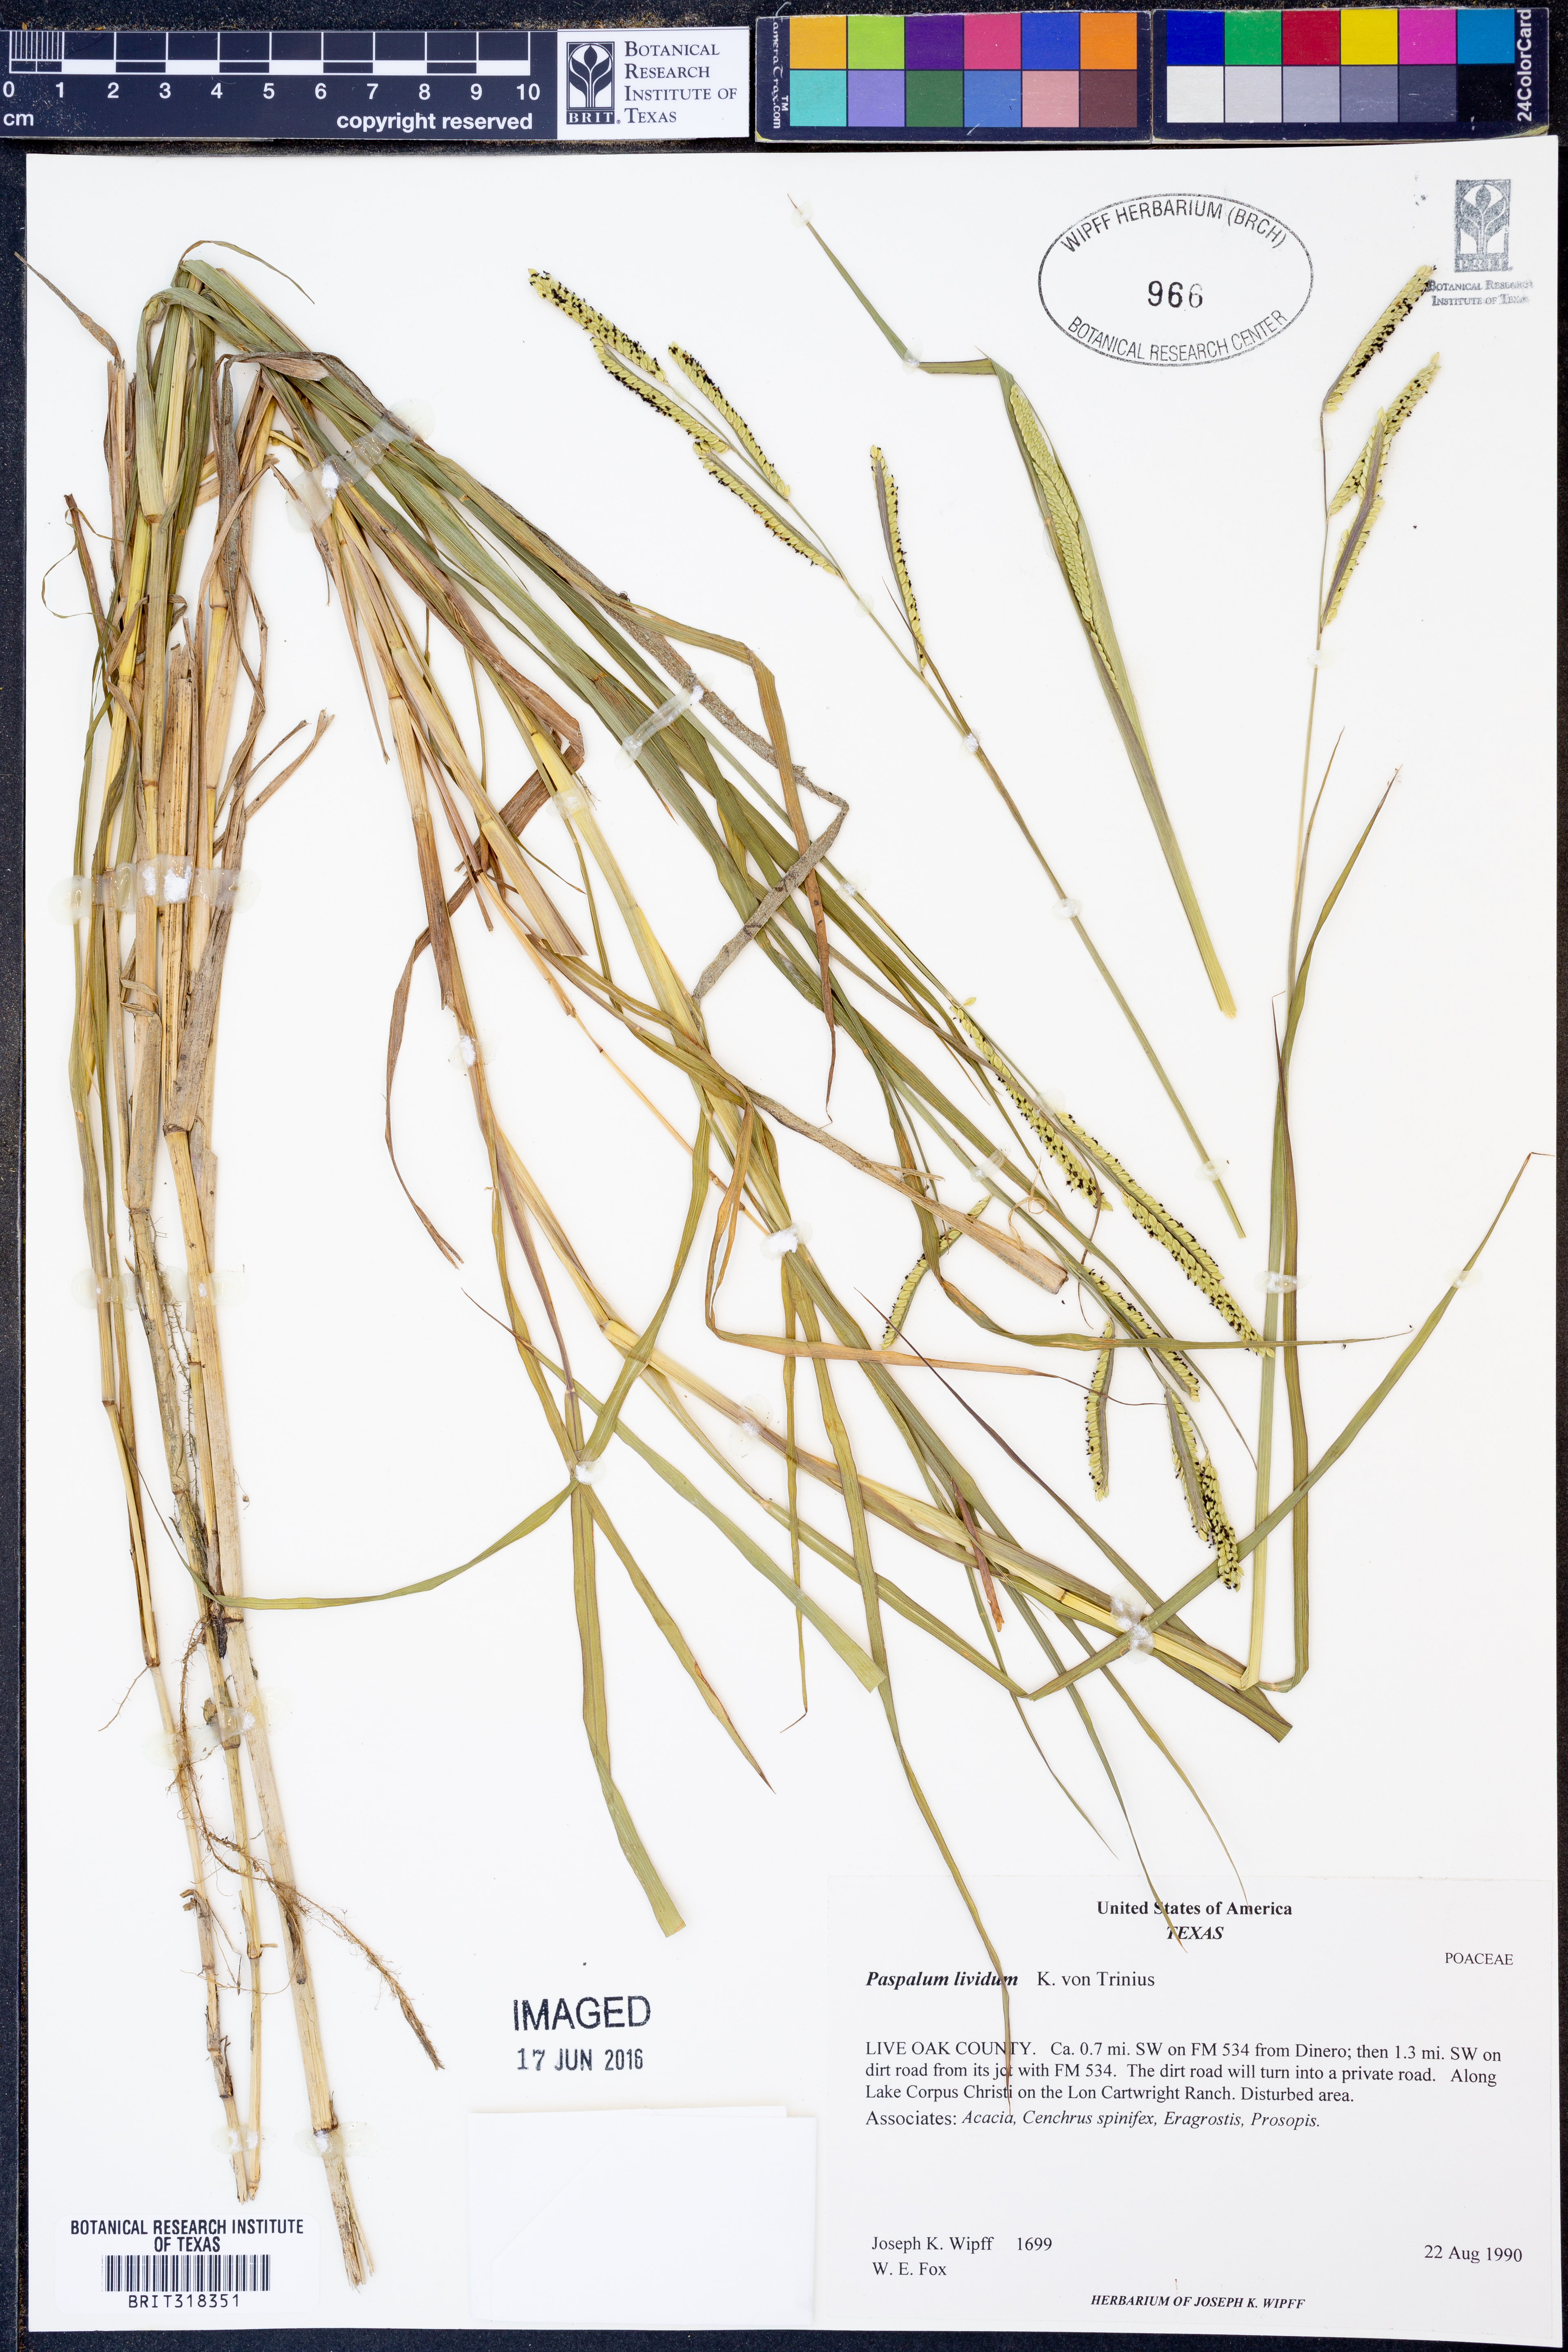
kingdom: Plantae
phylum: Tracheophyta
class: Liliopsida
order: Poales
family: Poaceae
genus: Paspalum
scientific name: Paspalum denticulatum
